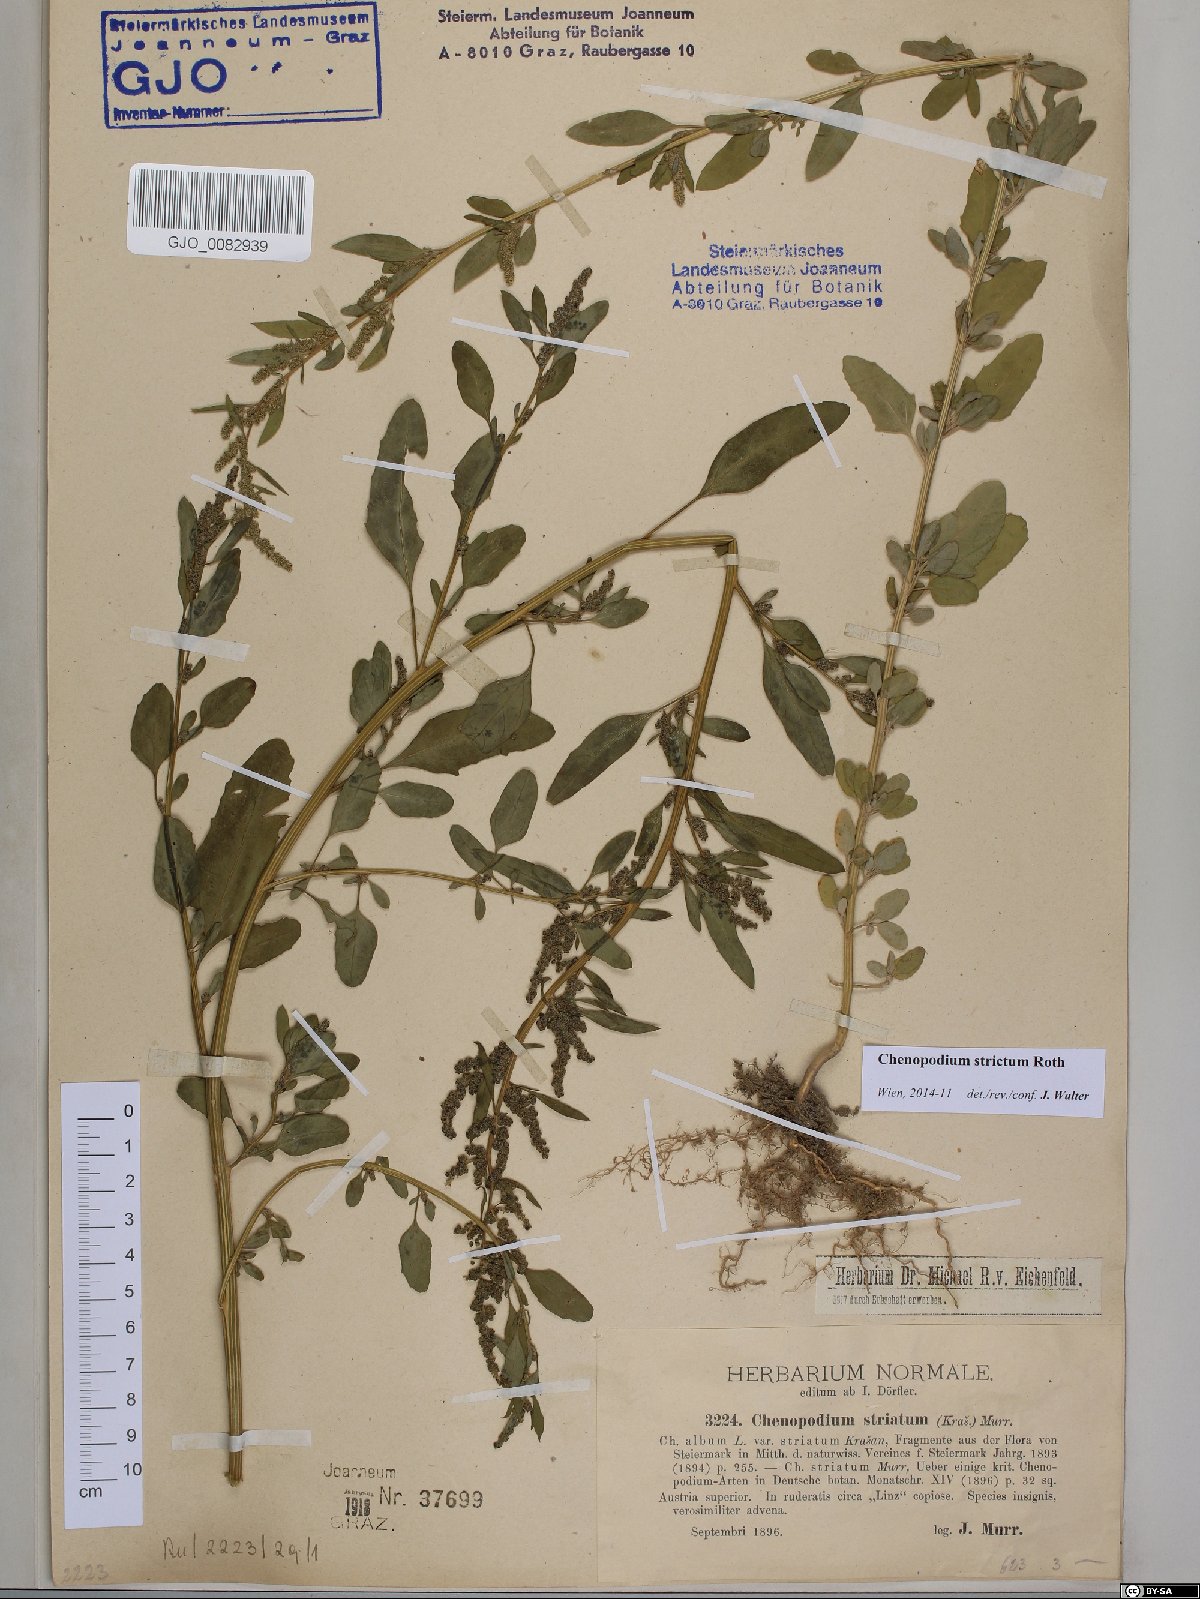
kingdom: Plantae
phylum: Tracheophyta
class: Magnoliopsida
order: Caryophyllales
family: Amaranthaceae
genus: Chenopodium
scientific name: Chenopodium album
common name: Fat-hen
